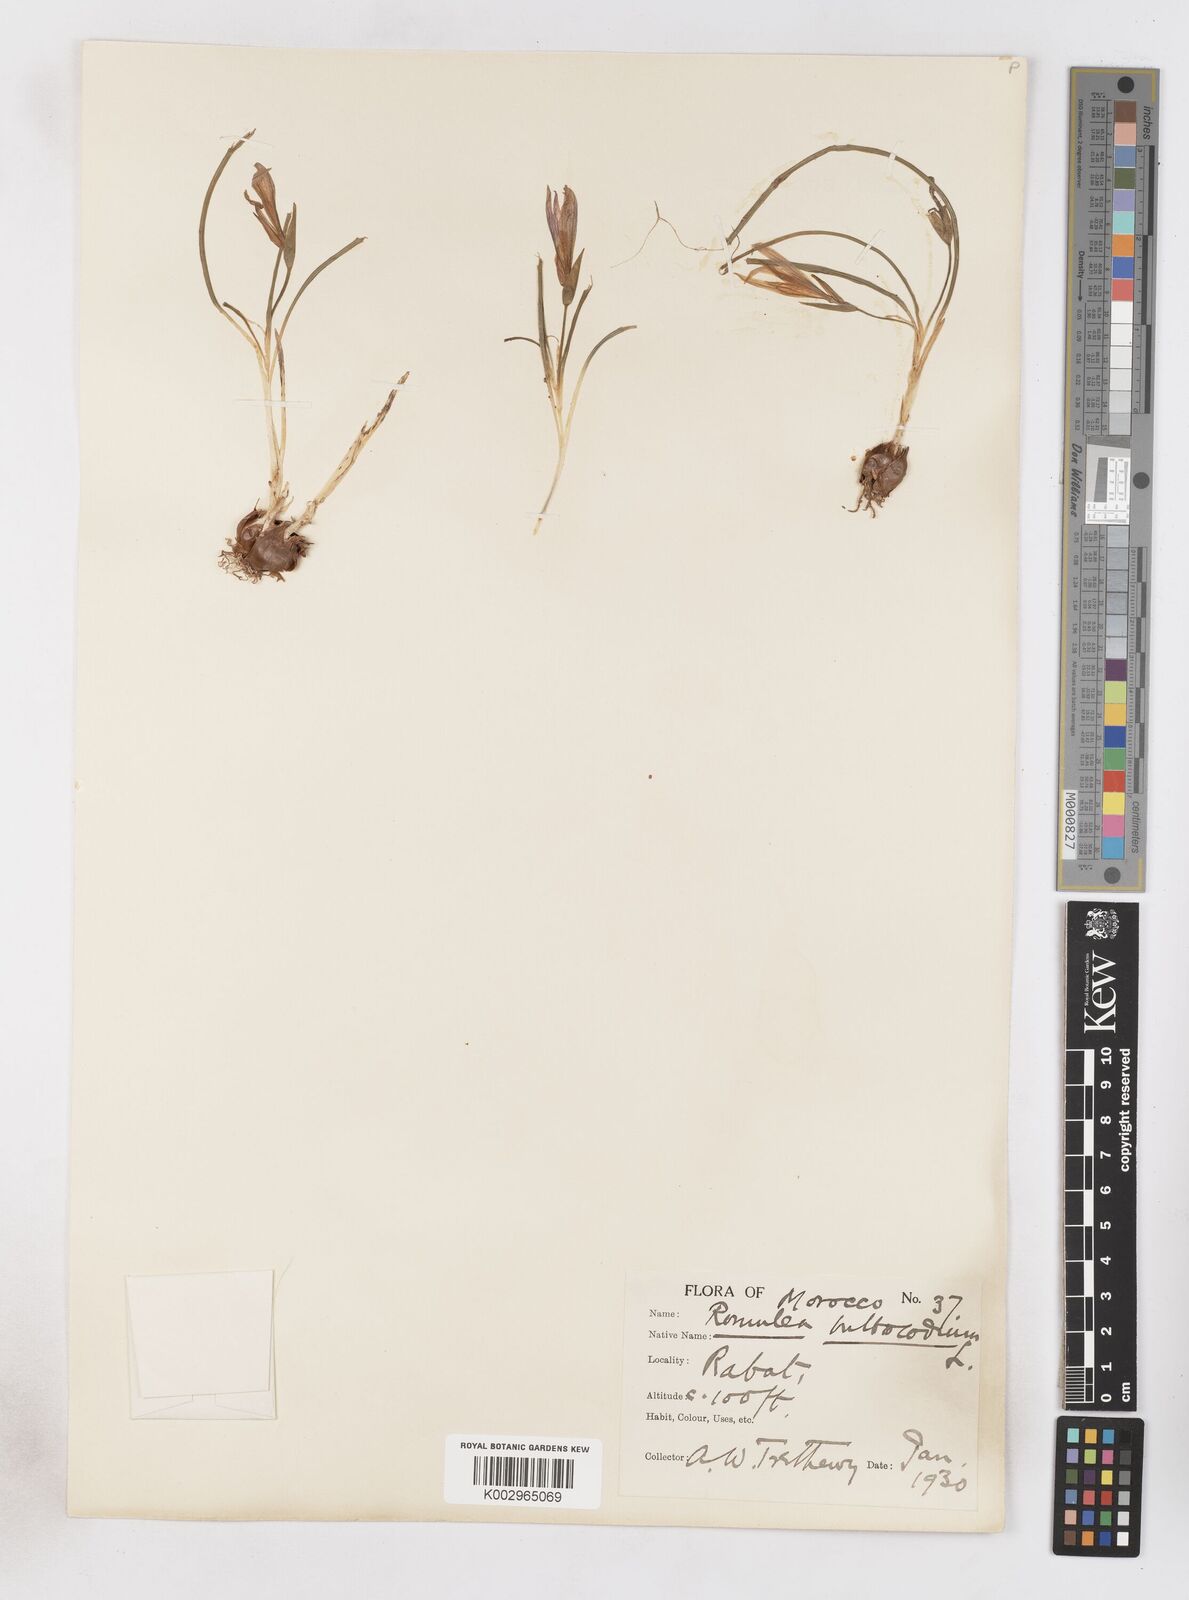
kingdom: Plantae
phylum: Tracheophyta
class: Liliopsida
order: Asparagales
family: Iridaceae
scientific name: Iridaceae
